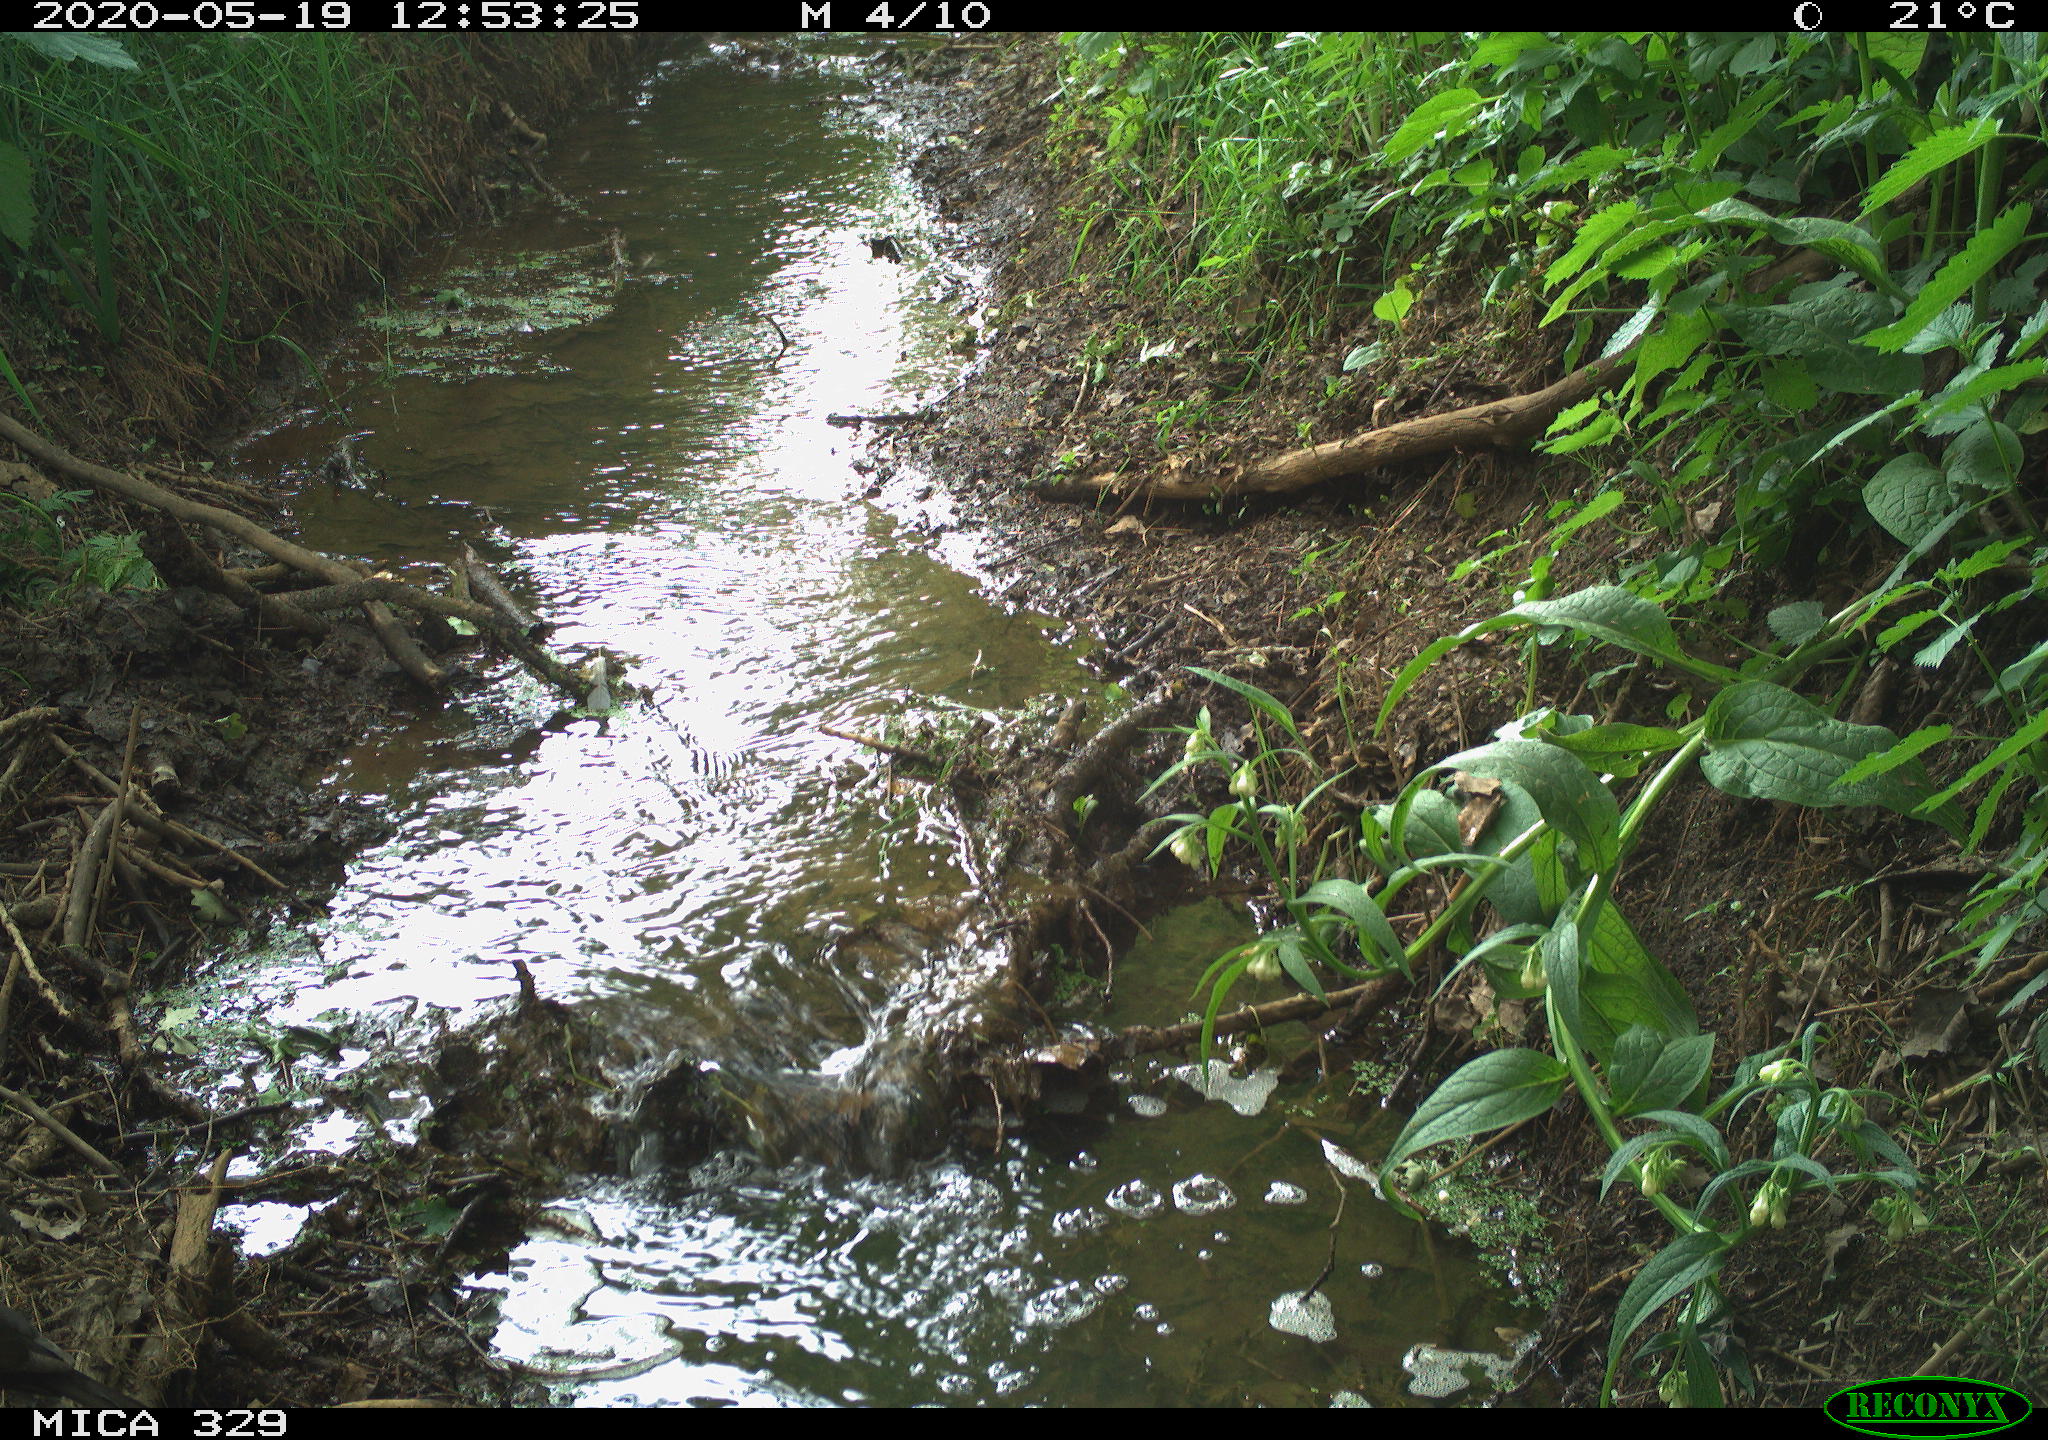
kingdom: Animalia
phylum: Chordata
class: Aves
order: Passeriformes
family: Turdidae
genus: Turdus
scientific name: Turdus merula
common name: Common blackbird
